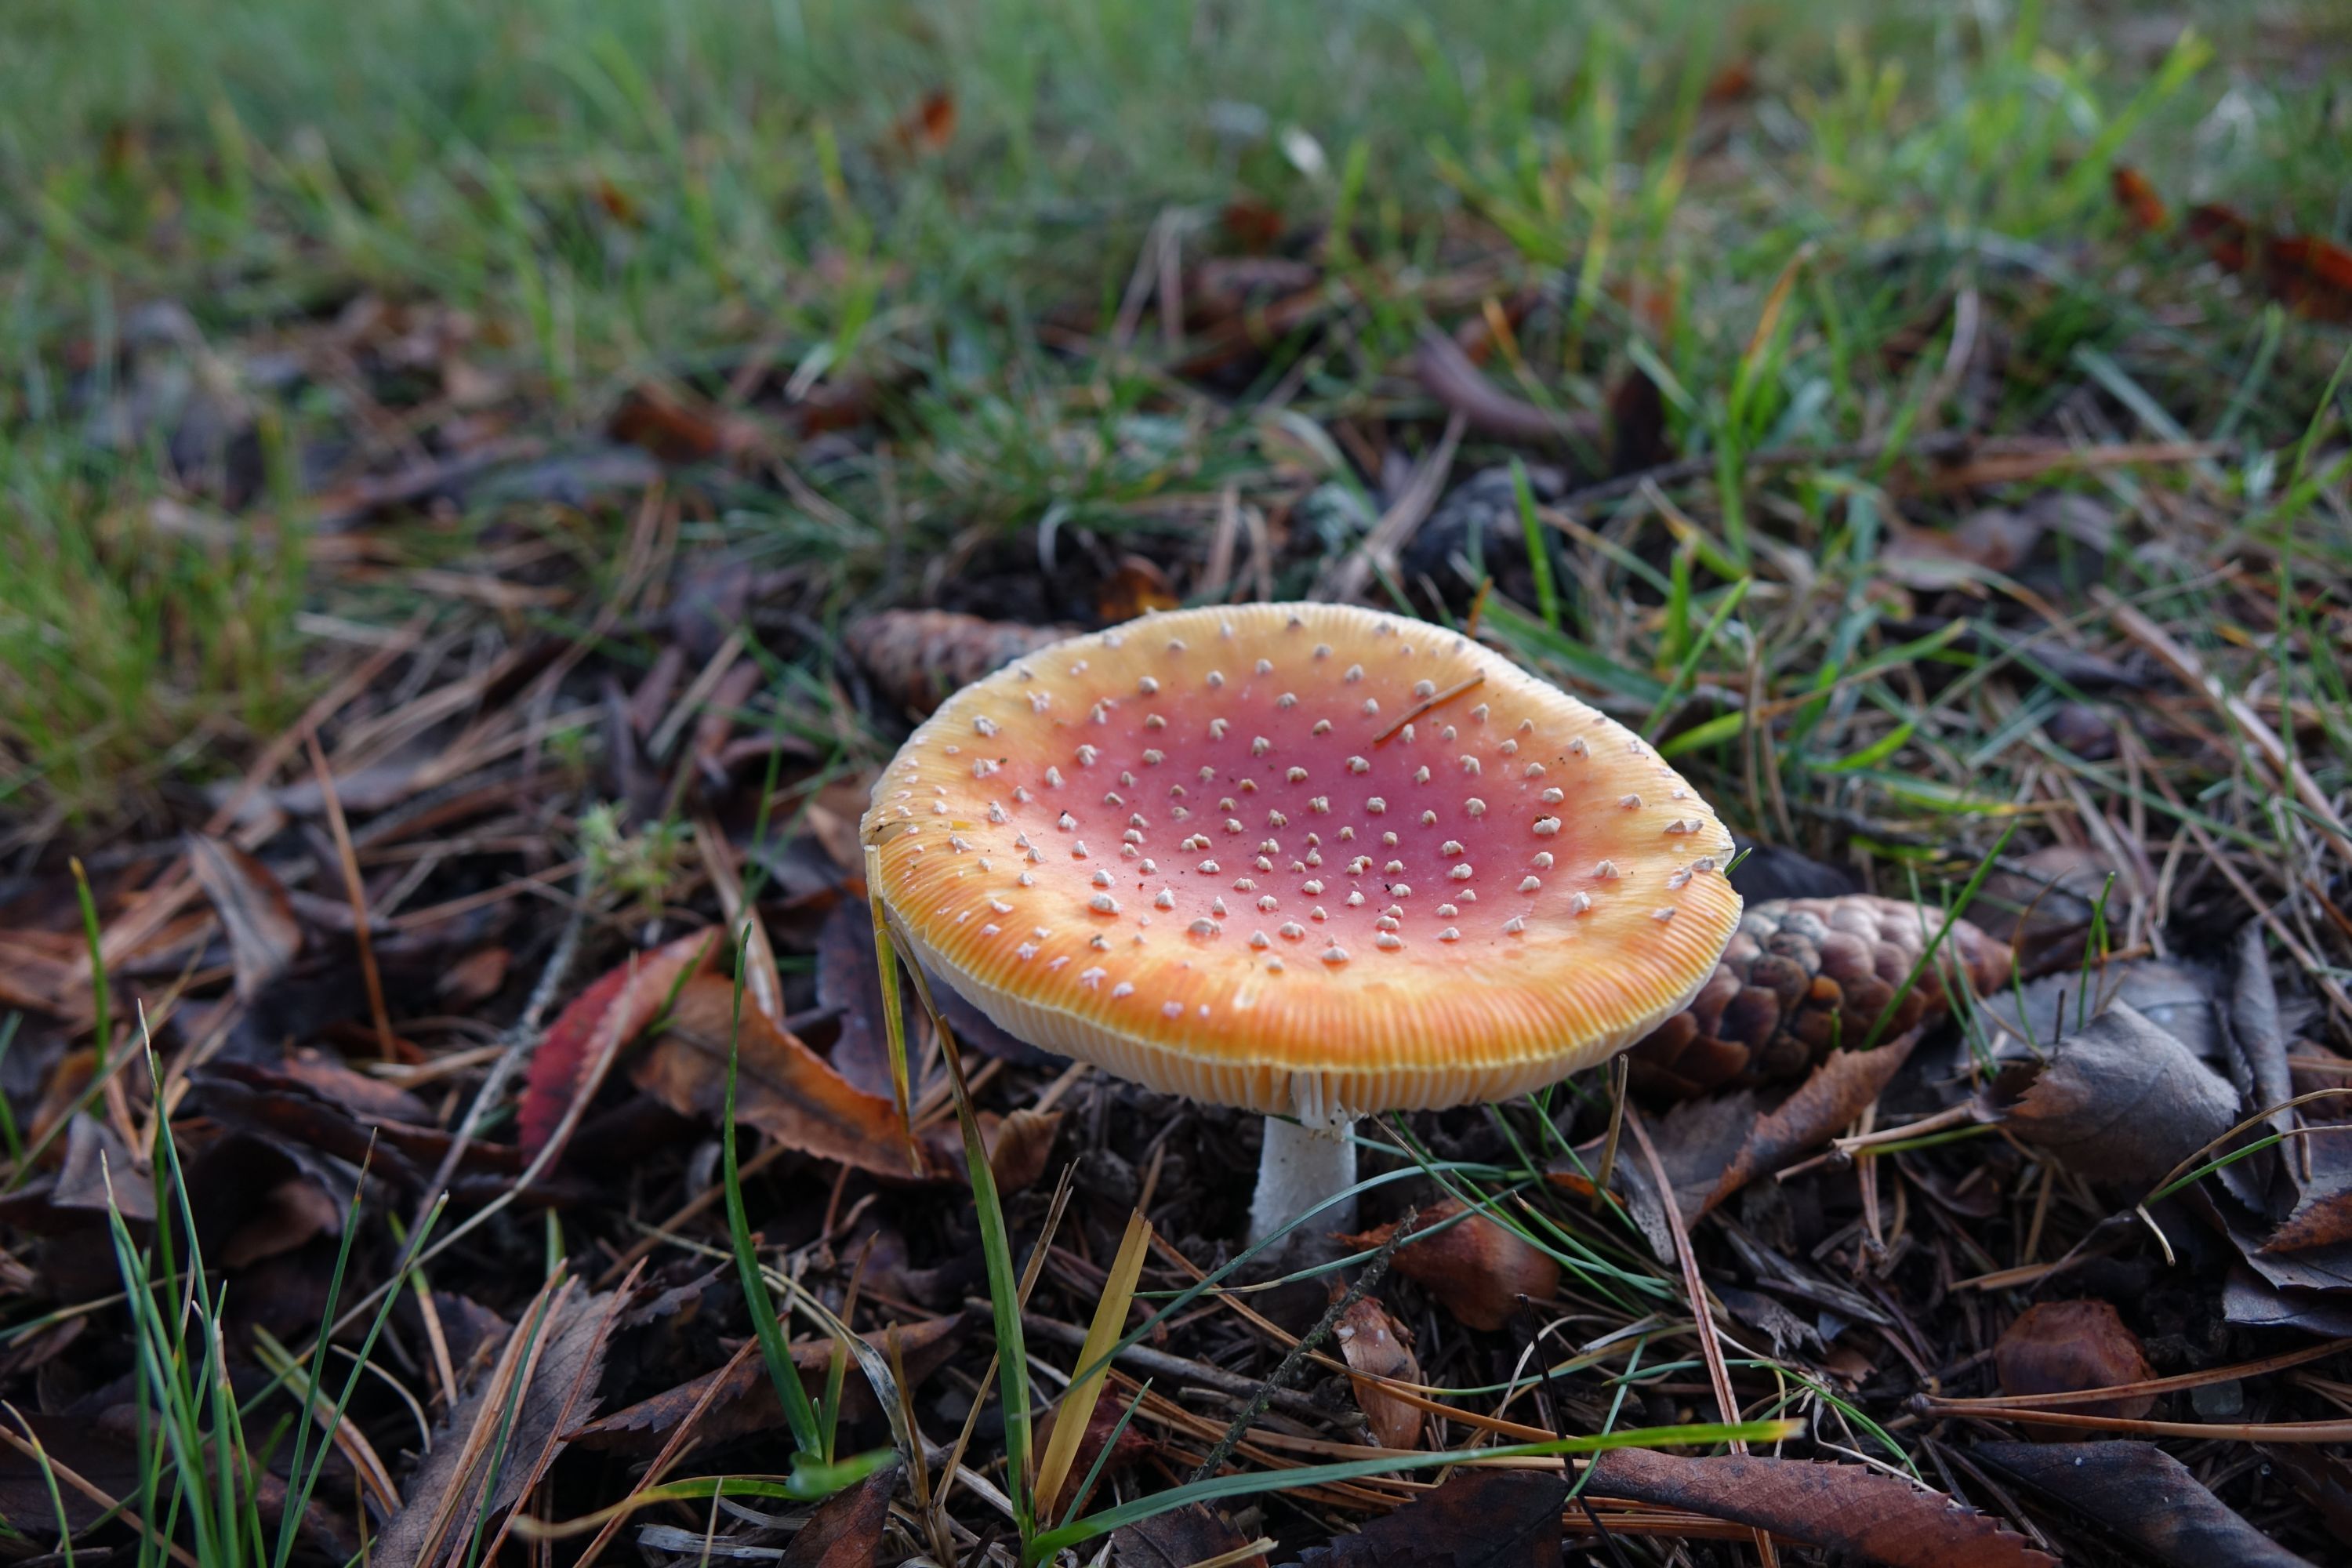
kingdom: Fungi
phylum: Basidiomycota
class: Agaricomycetes
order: Agaricales
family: Amanitaceae
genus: Amanita
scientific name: Amanita muscaria
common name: Fly agaric
